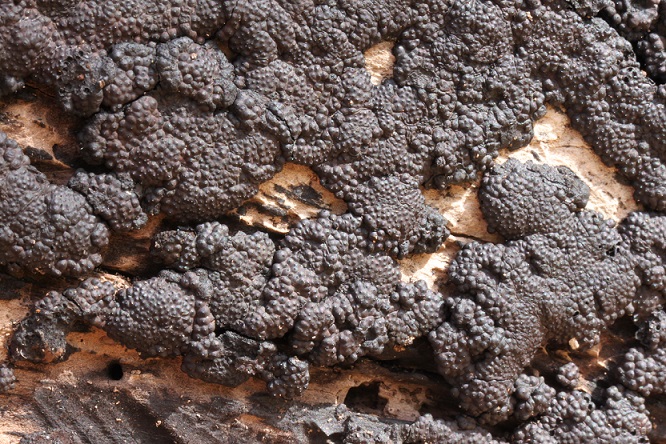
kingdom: Fungi
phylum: Ascomycota
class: Sordariomycetes
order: Xylariales
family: Hypoxylaceae
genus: Jackrogersella
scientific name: Jackrogersella cohaerens
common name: sammenflydende kulbær
